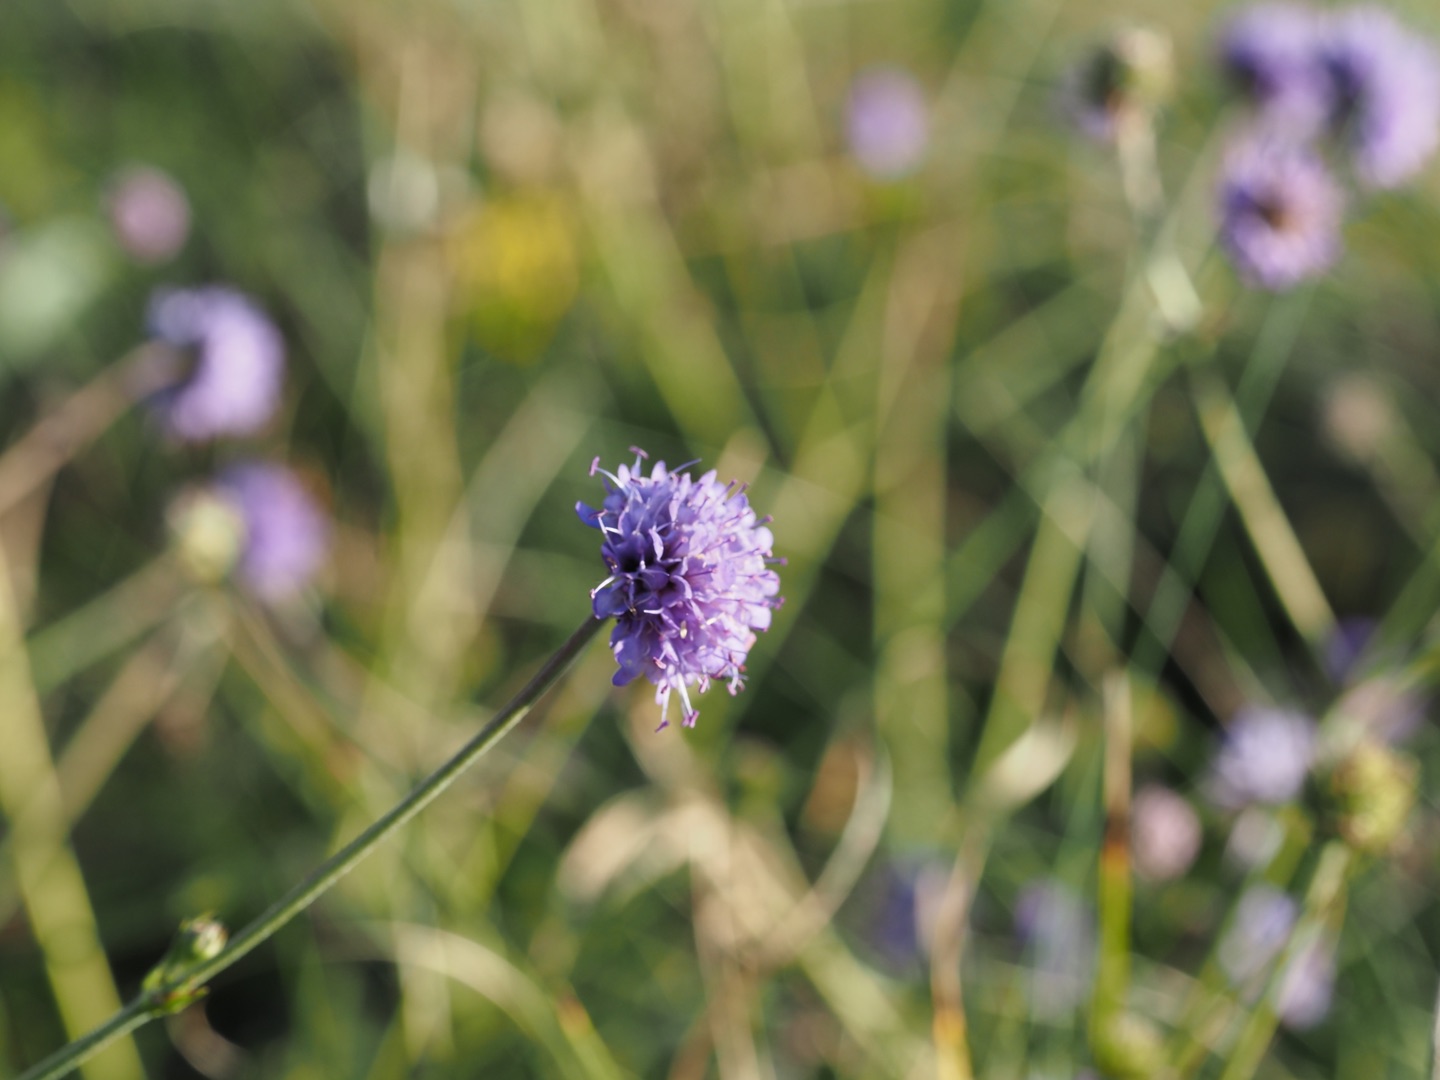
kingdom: Plantae
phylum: Tracheophyta
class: Magnoliopsida
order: Dipsacales
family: Caprifoliaceae
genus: Succisa
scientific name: Succisa pratensis
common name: Djævelsbid
